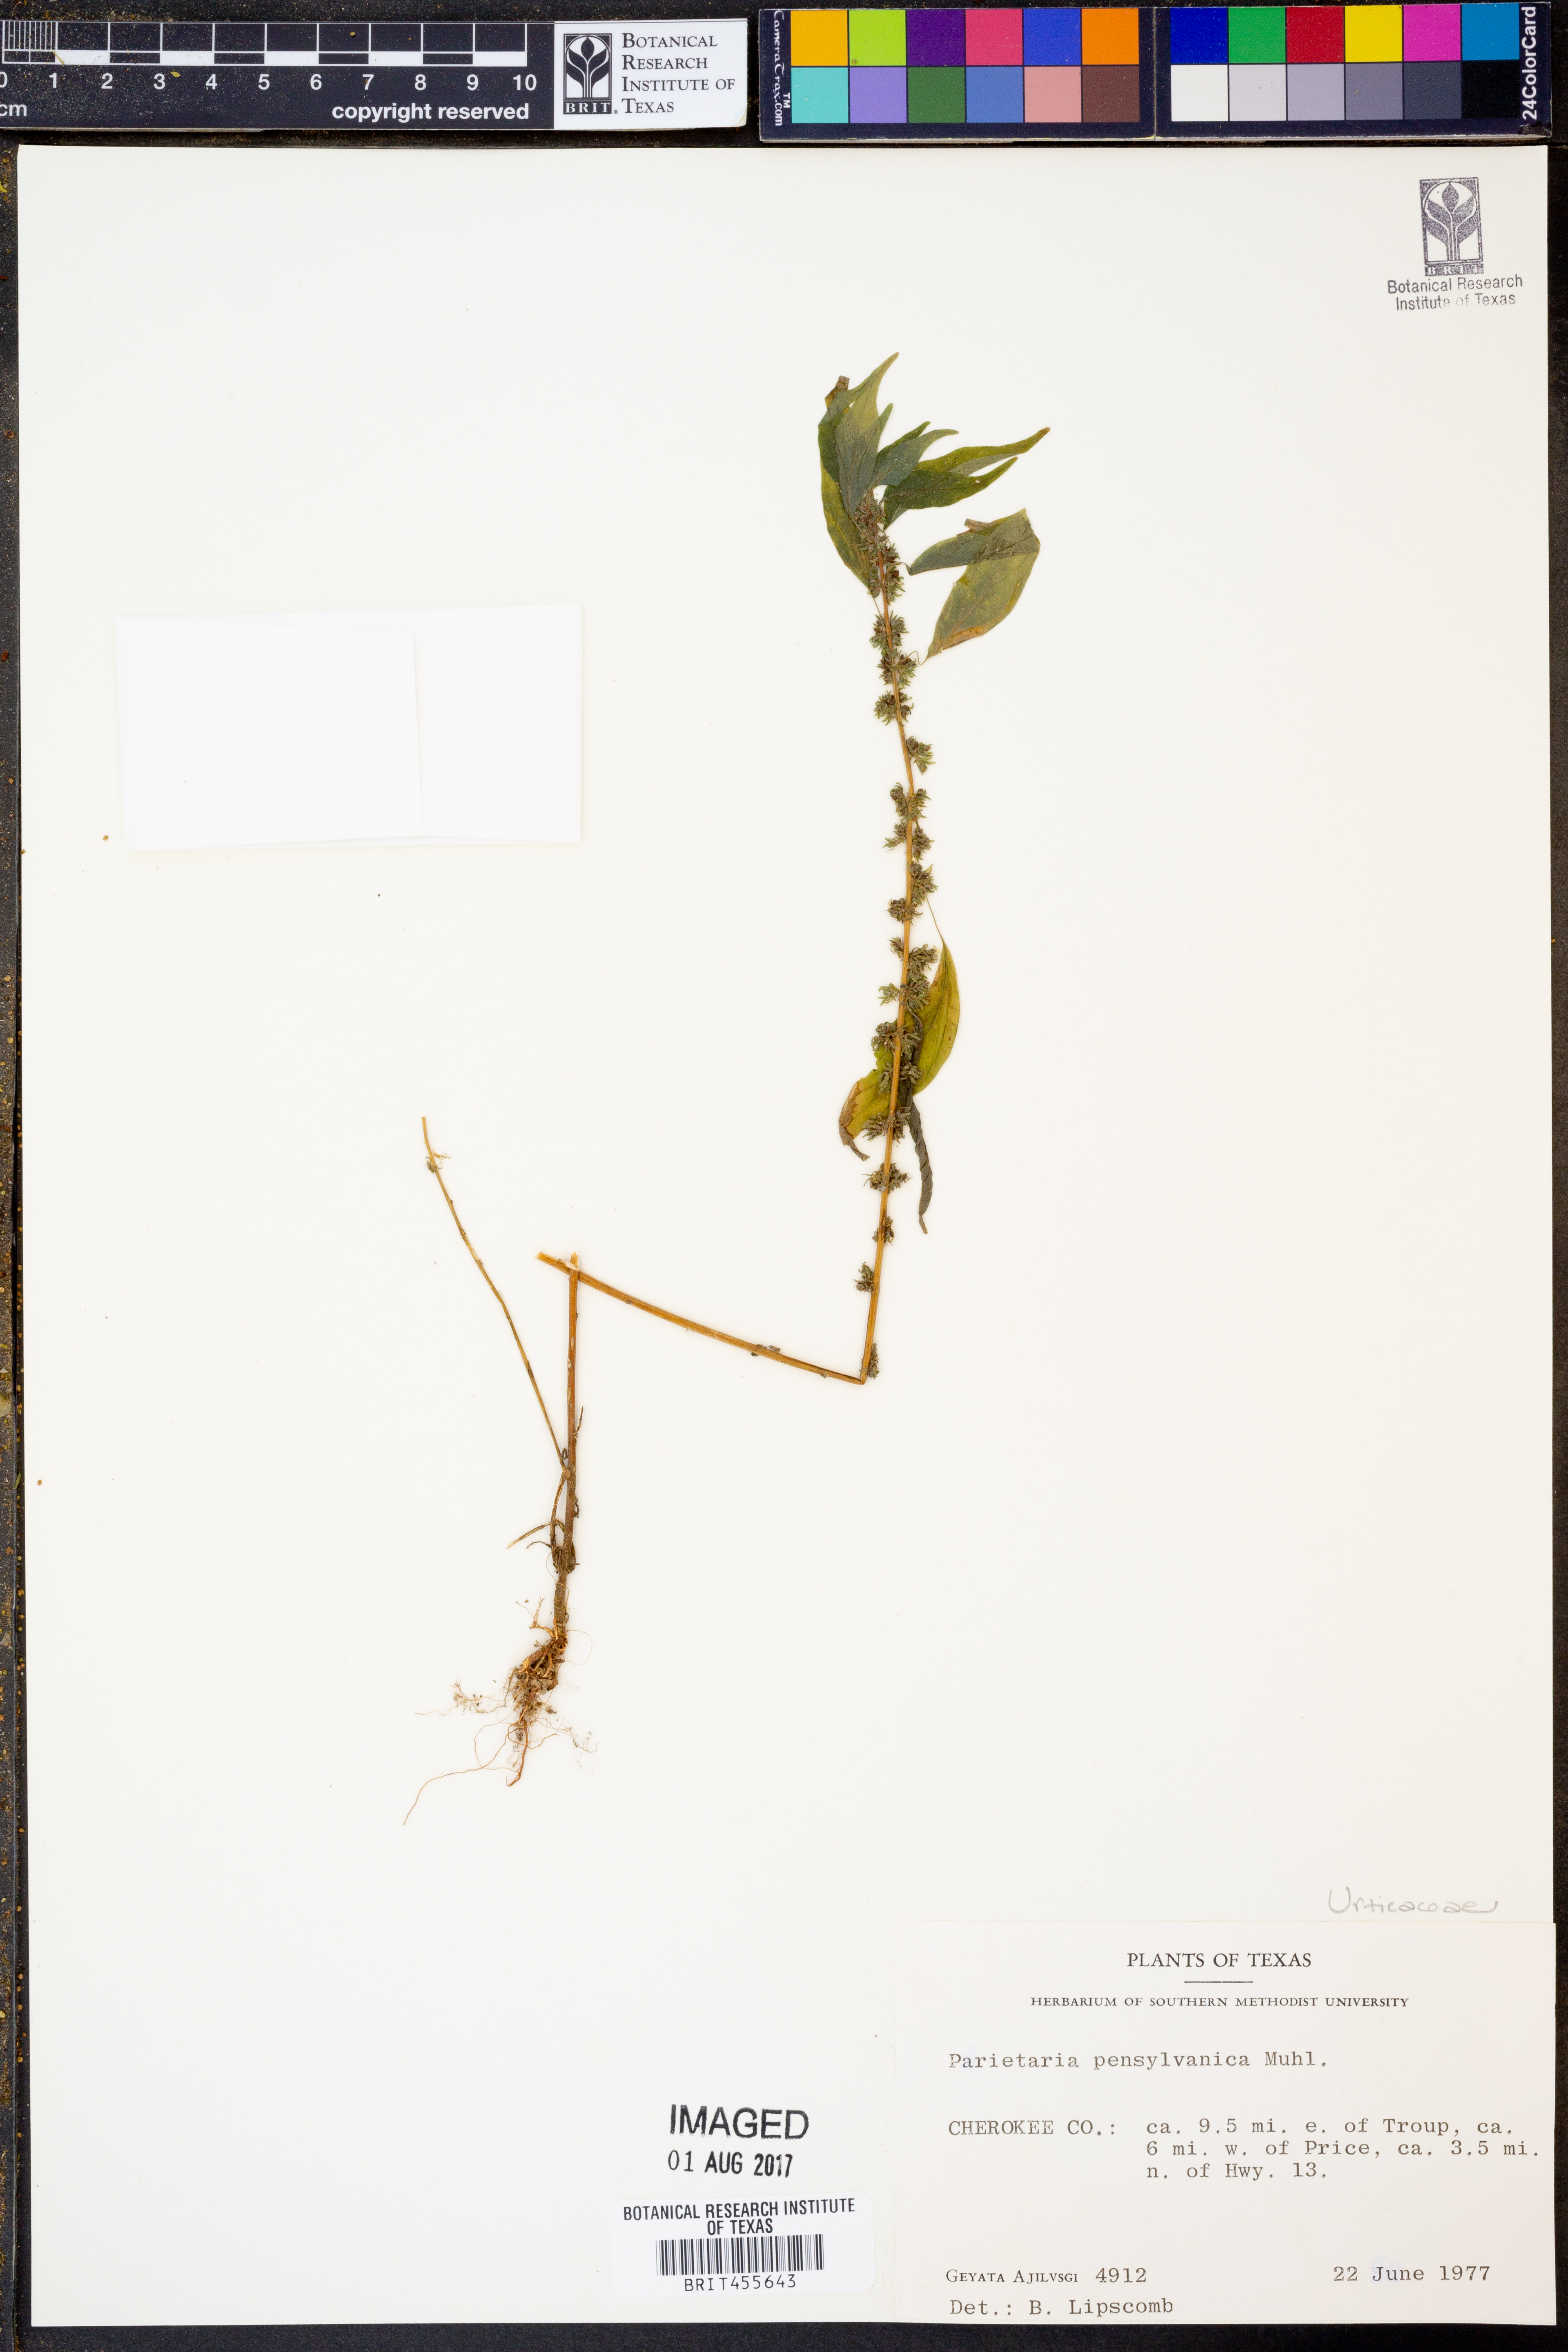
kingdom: Plantae
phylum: Tracheophyta
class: Magnoliopsida
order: Rosales
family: Urticaceae
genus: Parietaria
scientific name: Parietaria pensylvanica
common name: Pennsylvania pellitory
